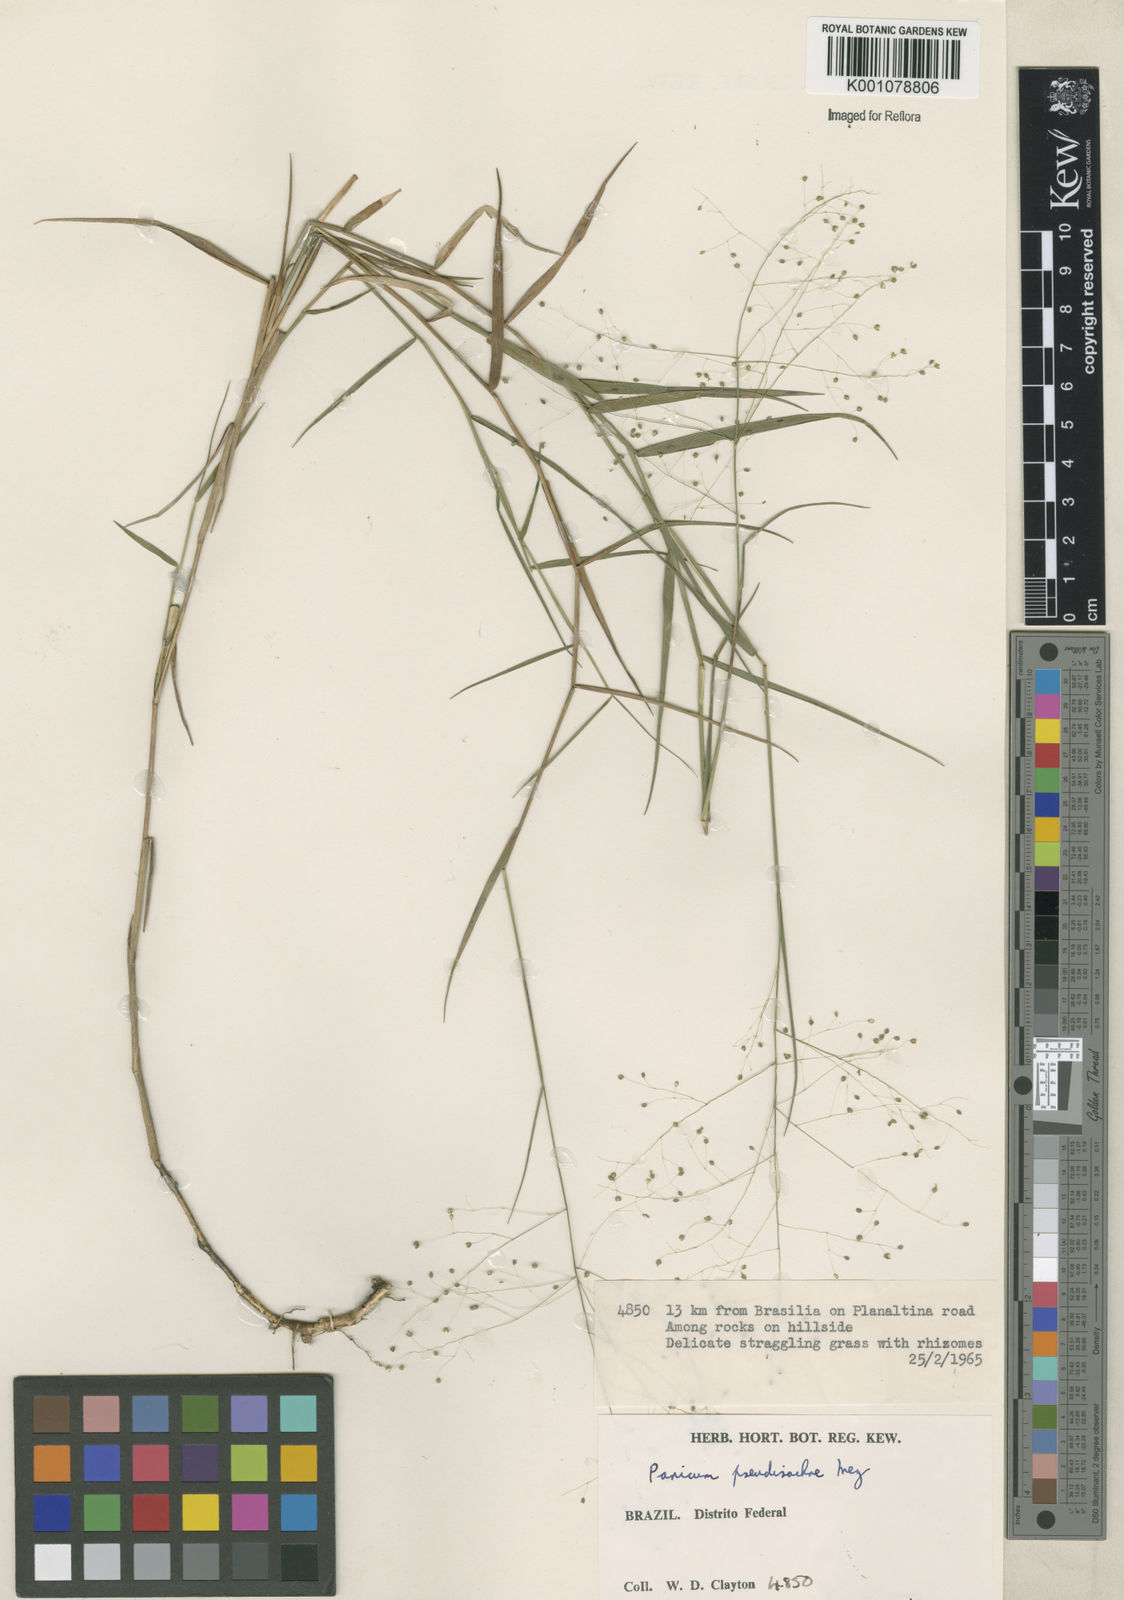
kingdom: Plantae
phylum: Tracheophyta
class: Liliopsida
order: Poales
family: Poaceae
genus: Trichanthecium
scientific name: Trichanthecium pseudisachne
